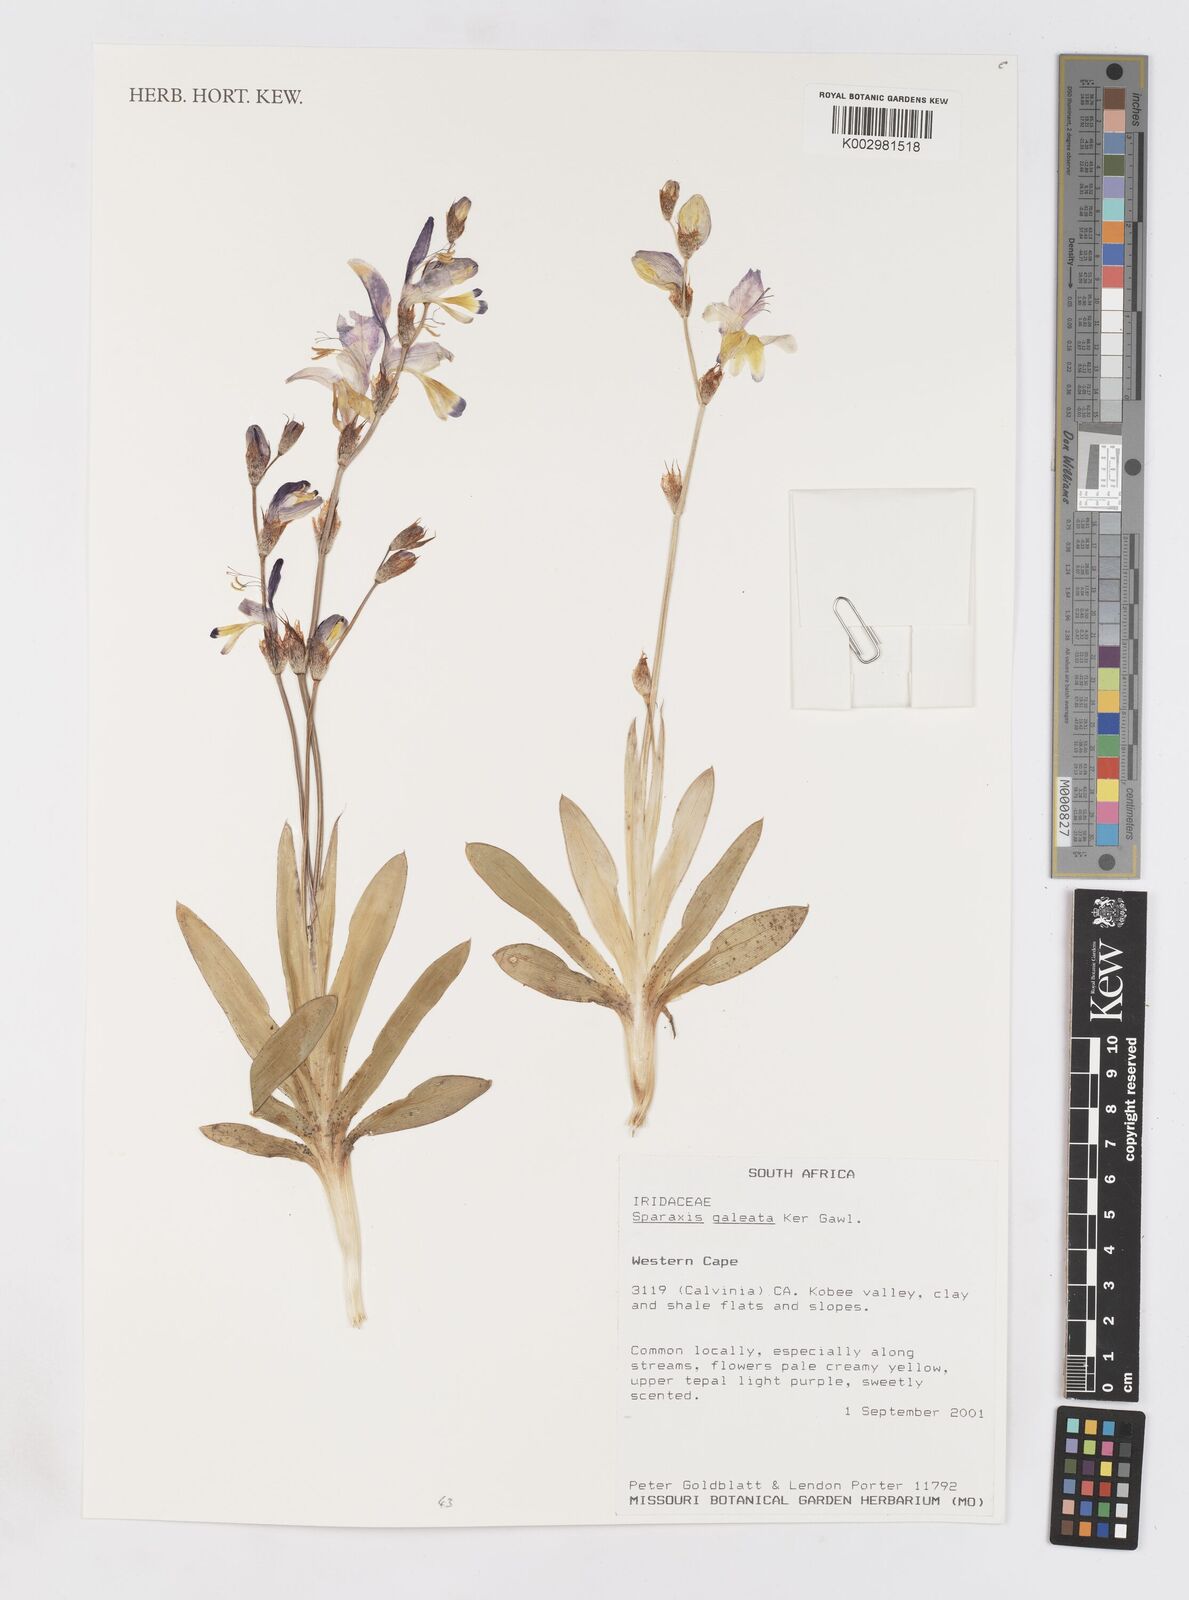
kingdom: Plantae
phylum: Tracheophyta
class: Liliopsida
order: Asparagales
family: Iridaceae
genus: Sparaxis
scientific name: Sparaxis galeata
